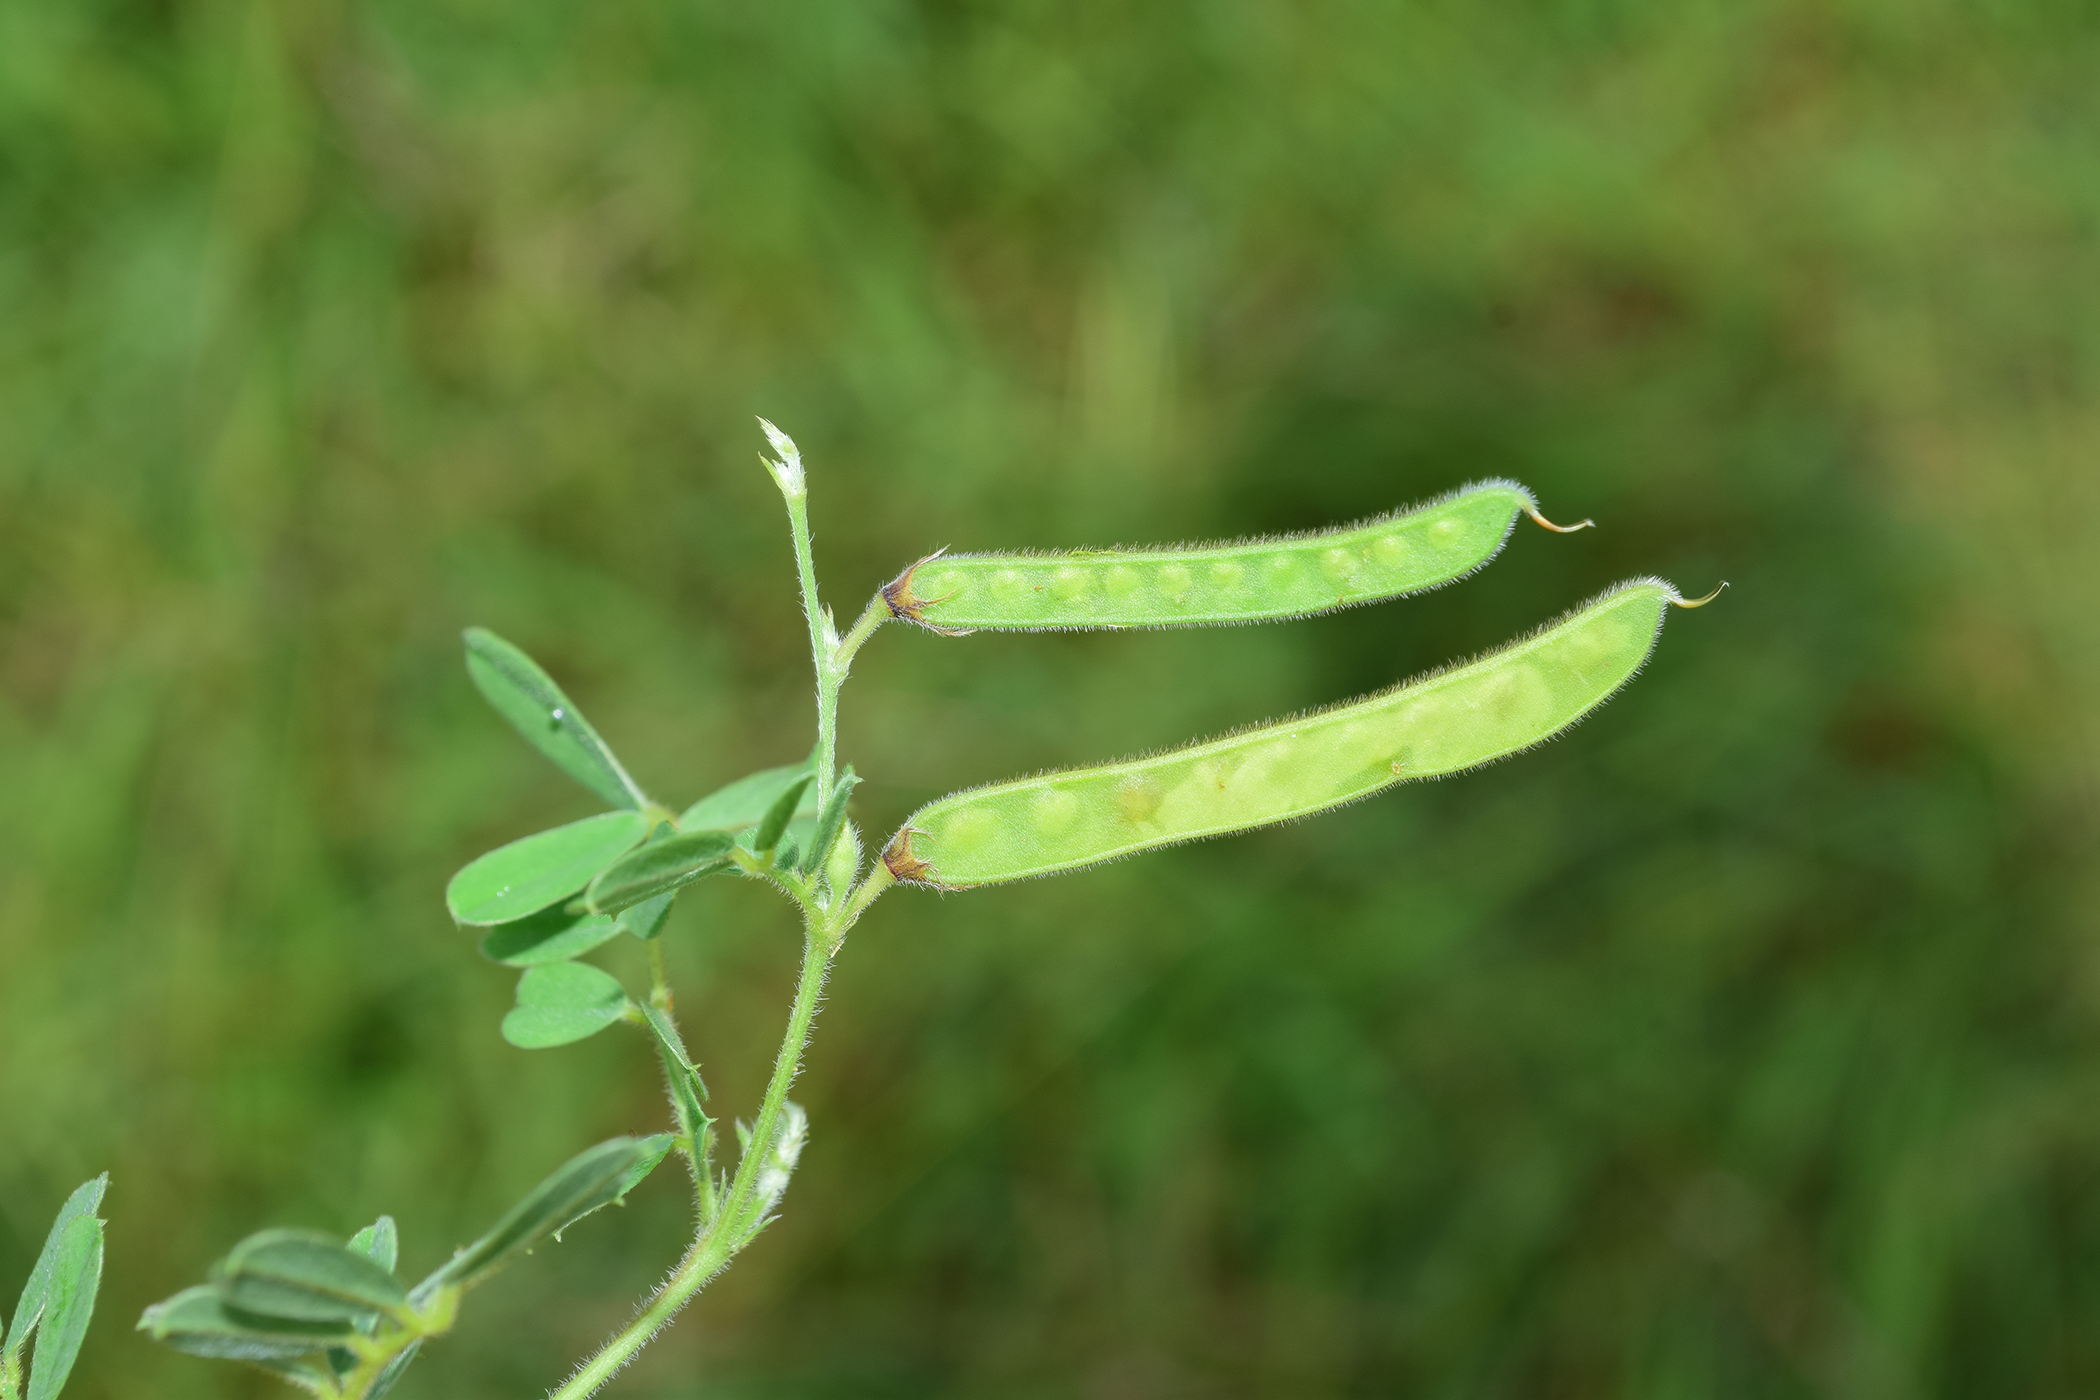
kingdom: Plantae
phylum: Tracheophyta
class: Magnoliopsida
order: Fabales
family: Fabaceae
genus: Tephrosia
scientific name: Tephrosia pumila
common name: Indigo sauvage
